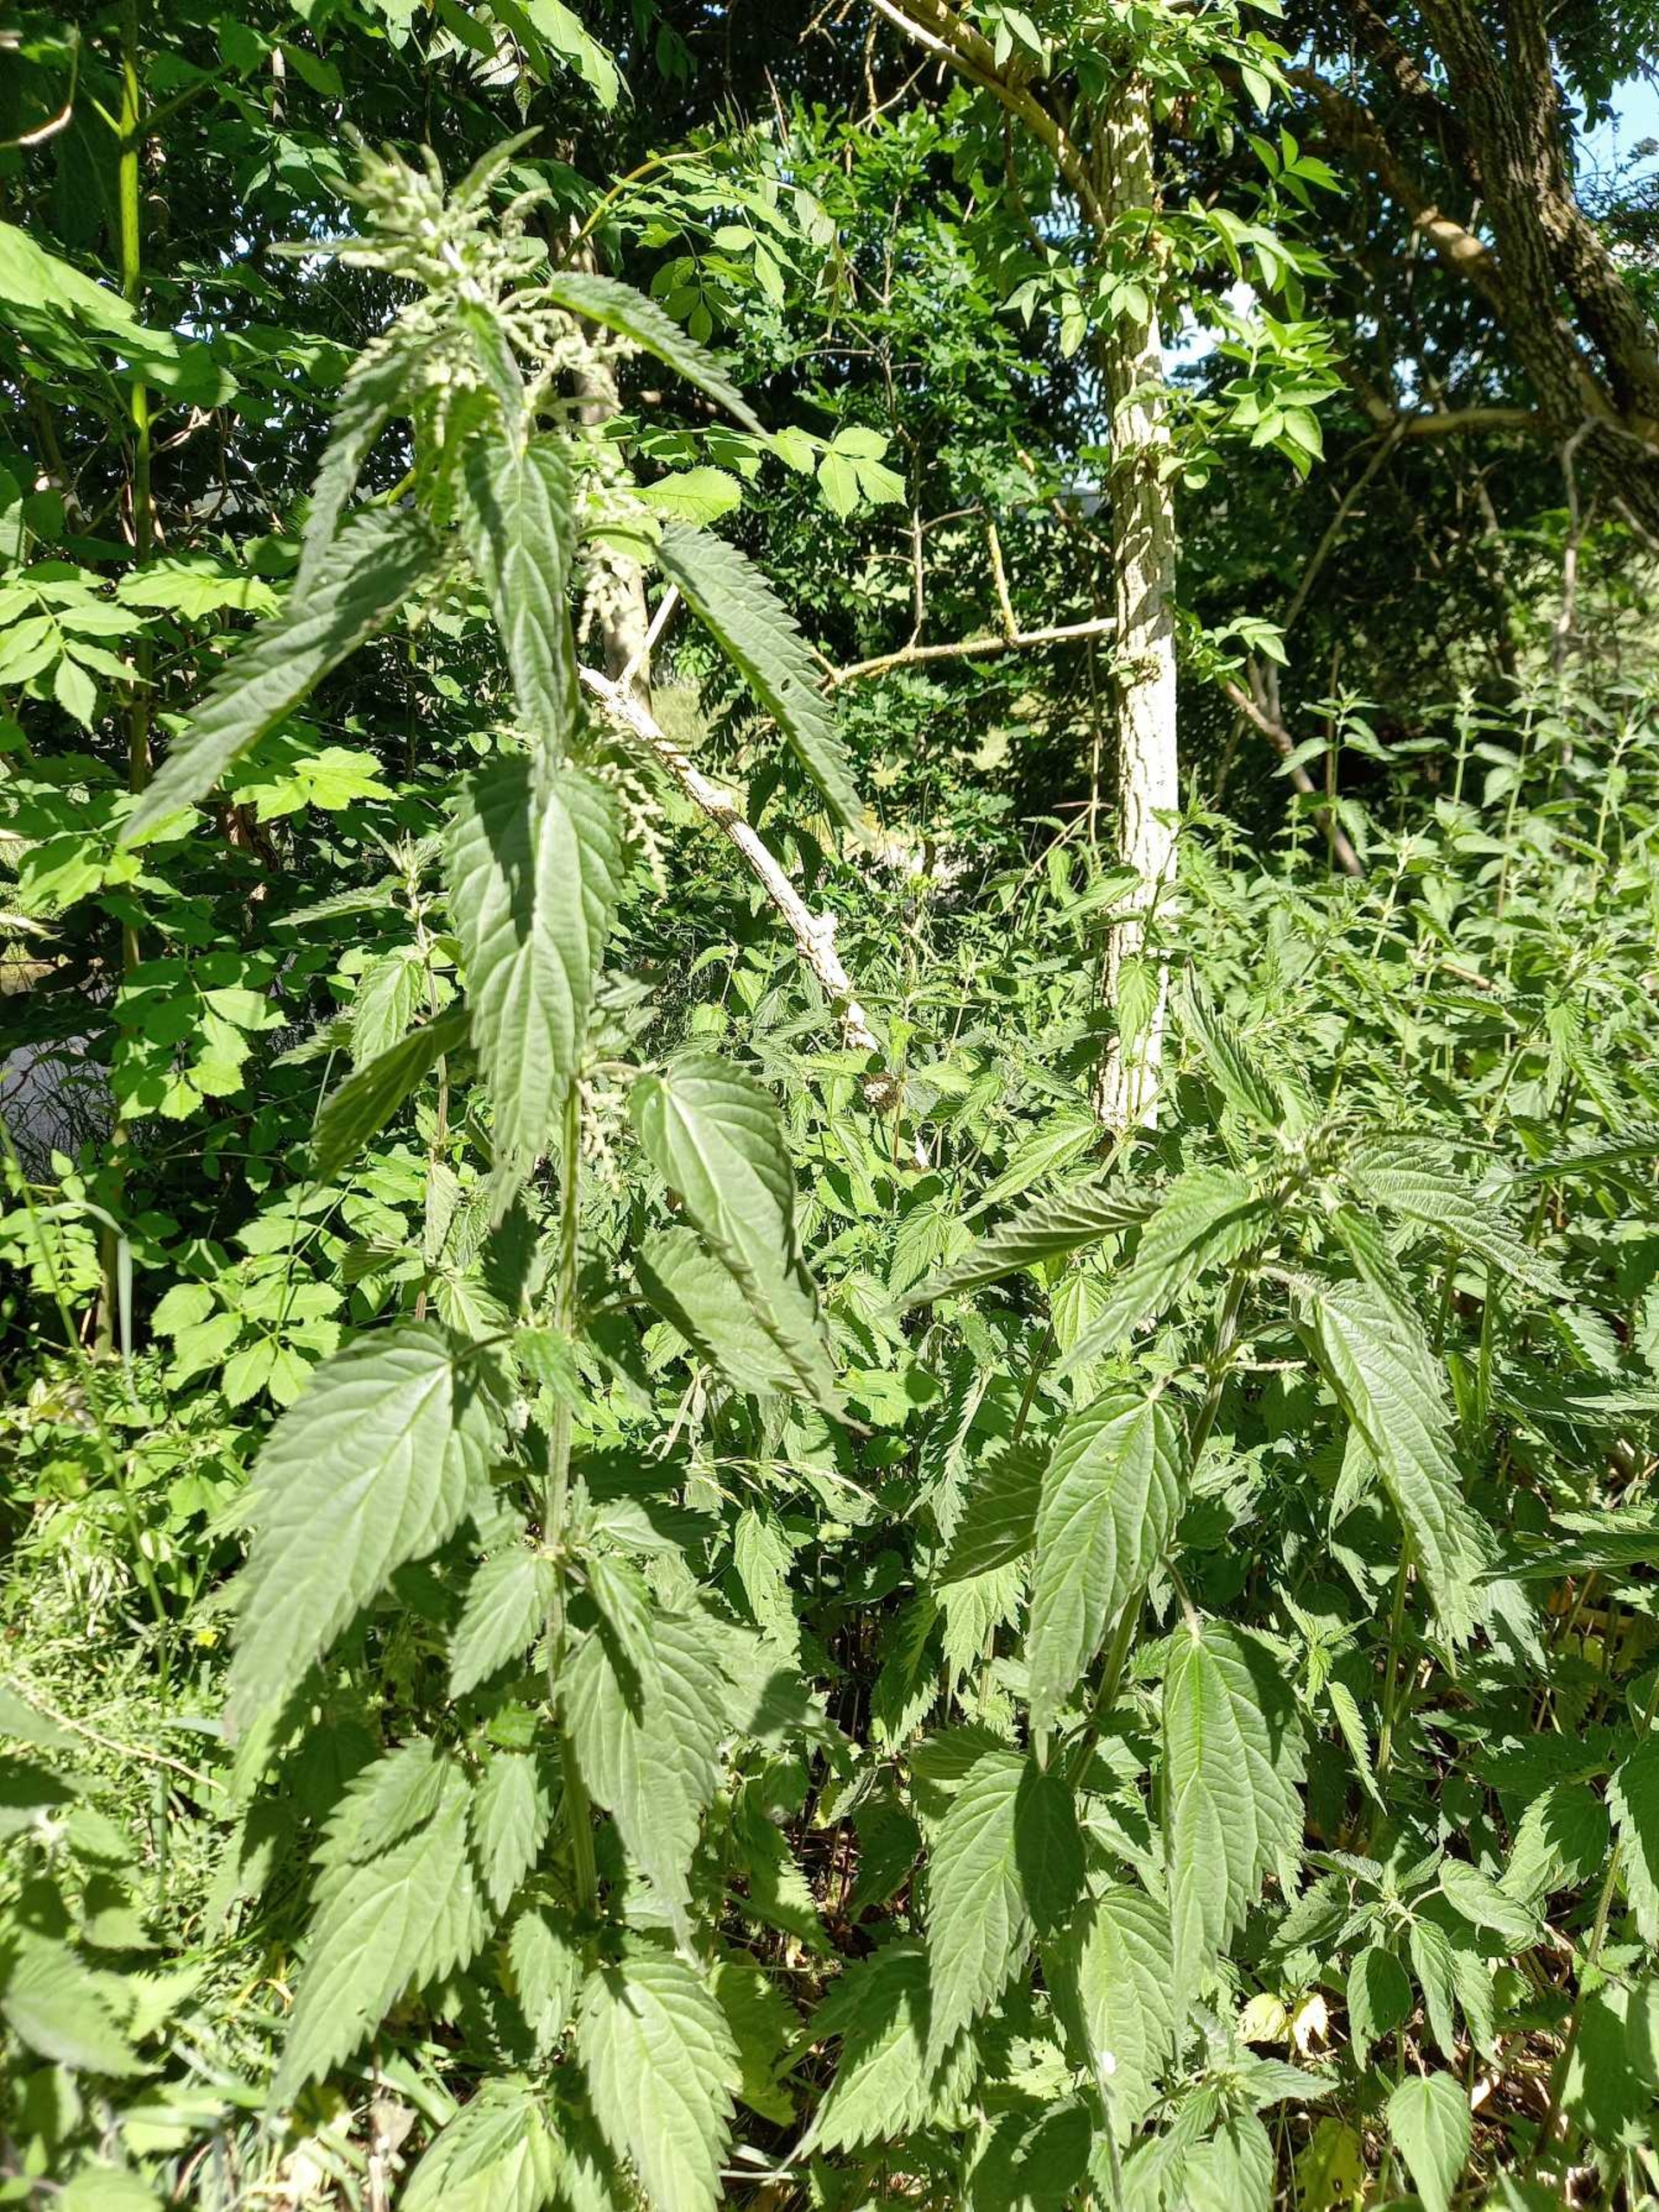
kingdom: Plantae
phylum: Tracheophyta
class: Magnoliopsida
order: Rosales
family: Urticaceae
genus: Urtica
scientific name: Urtica dioica
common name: Stor nælde
